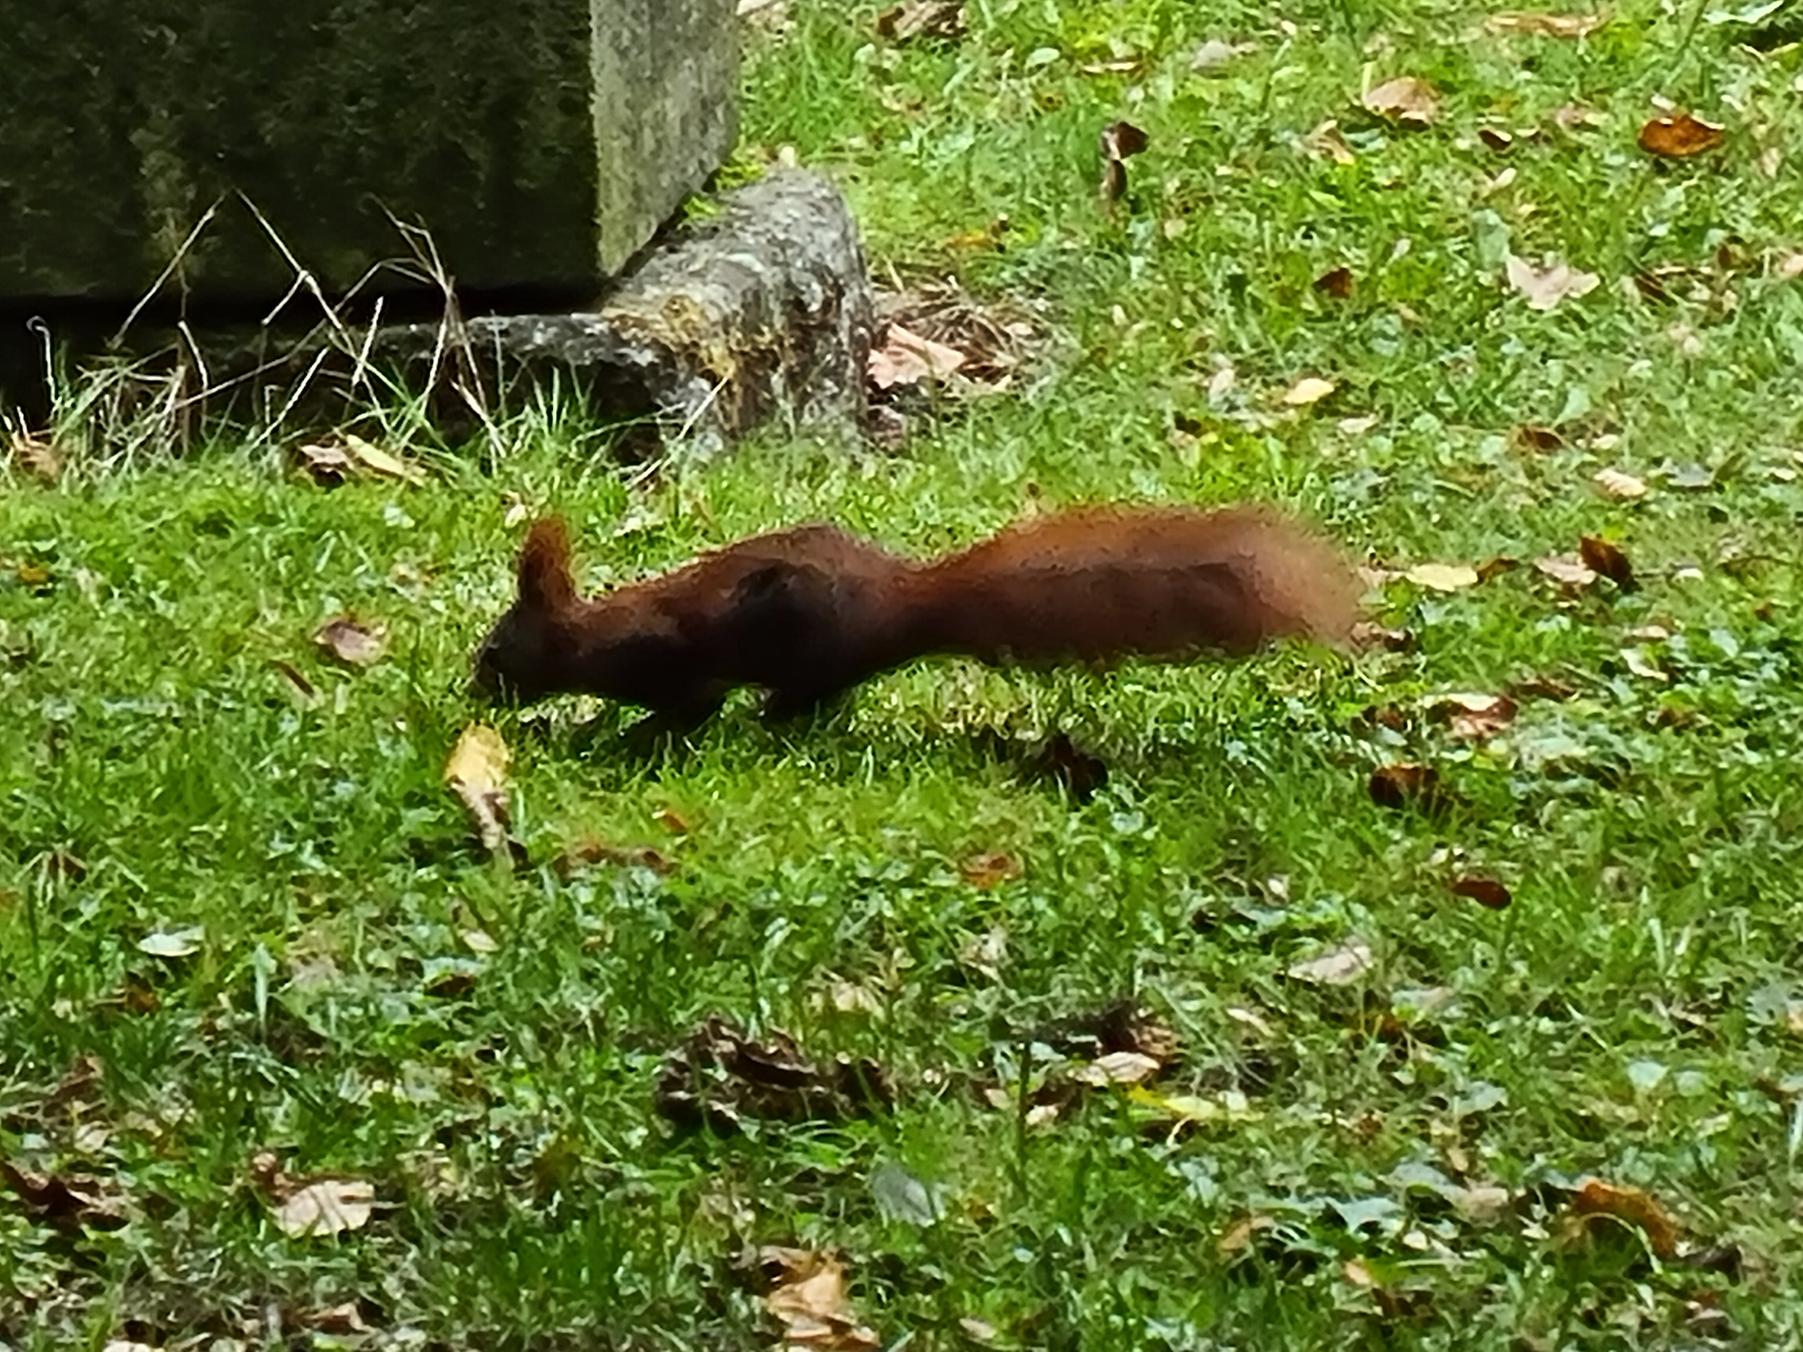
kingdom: Animalia
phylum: Chordata
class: Mammalia
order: Rodentia
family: Sciuridae
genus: Sciurus
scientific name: Sciurus vulgaris
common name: Egern
